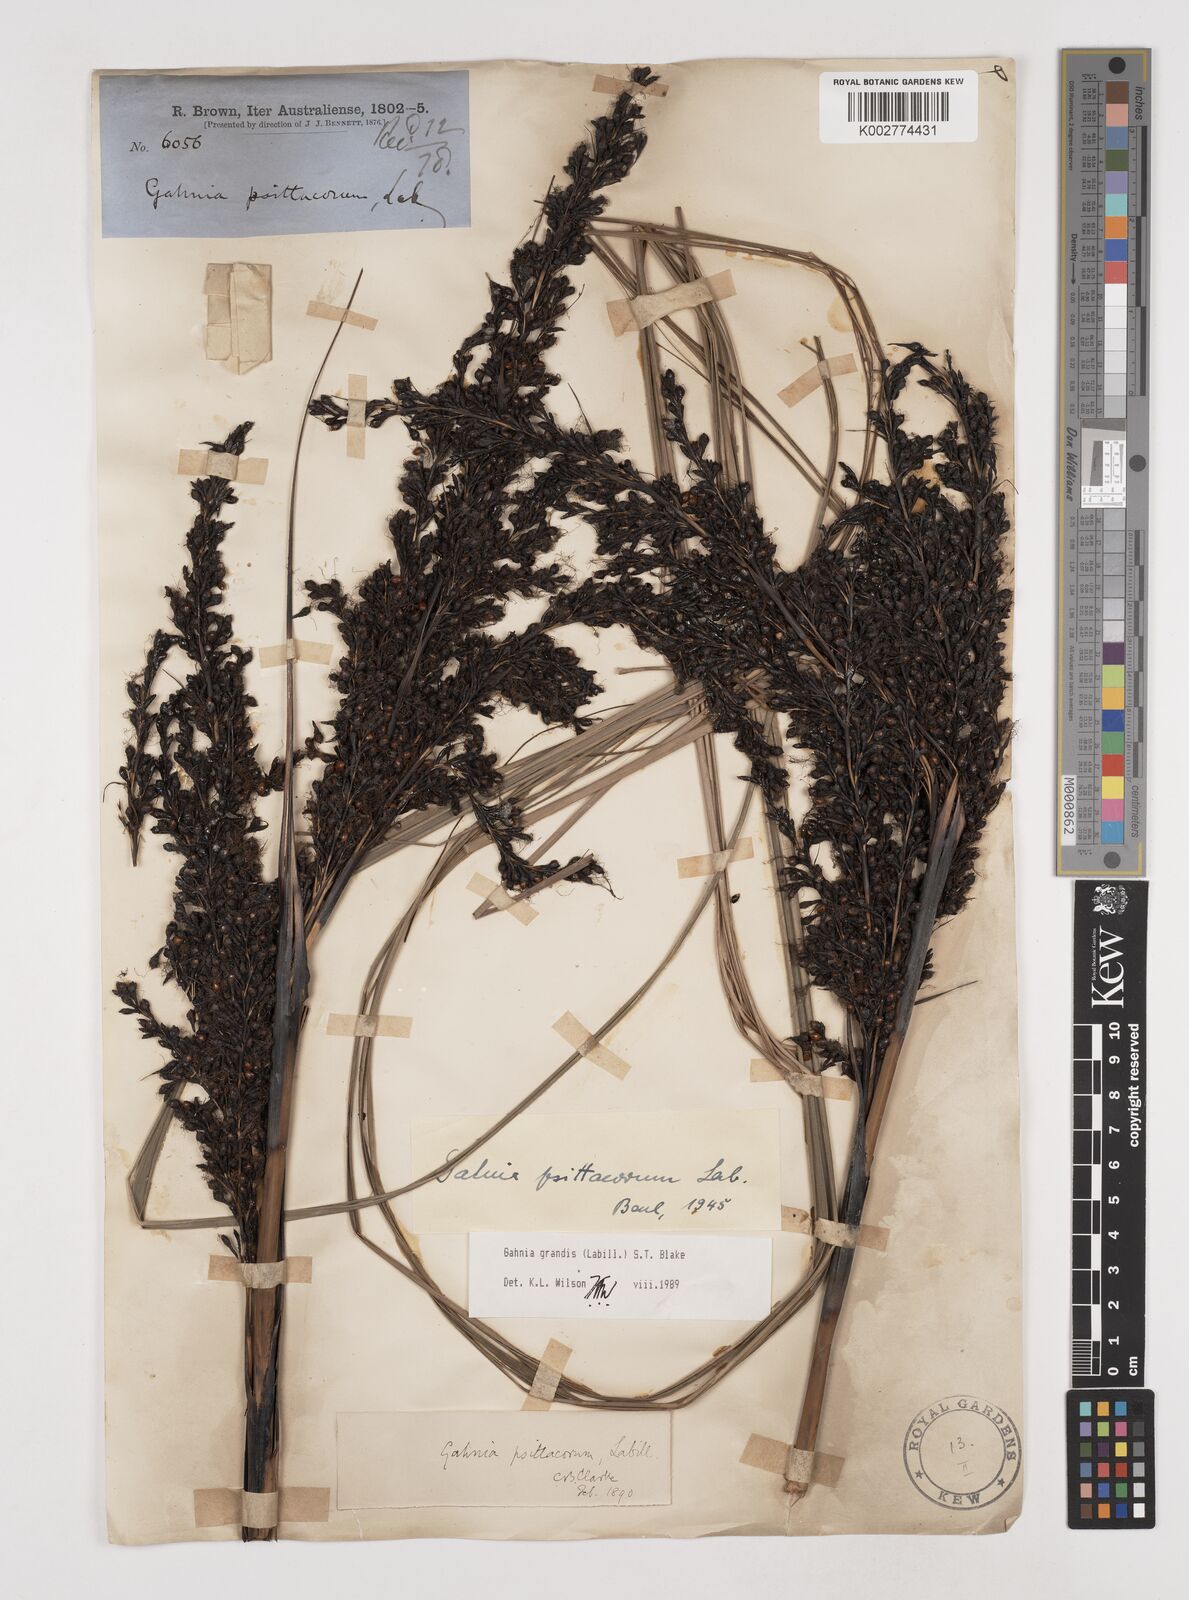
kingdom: Plantae
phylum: Tracheophyta
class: Liliopsida
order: Poales
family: Cyperaceae
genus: Gahnia
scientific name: Gahnia grandis
